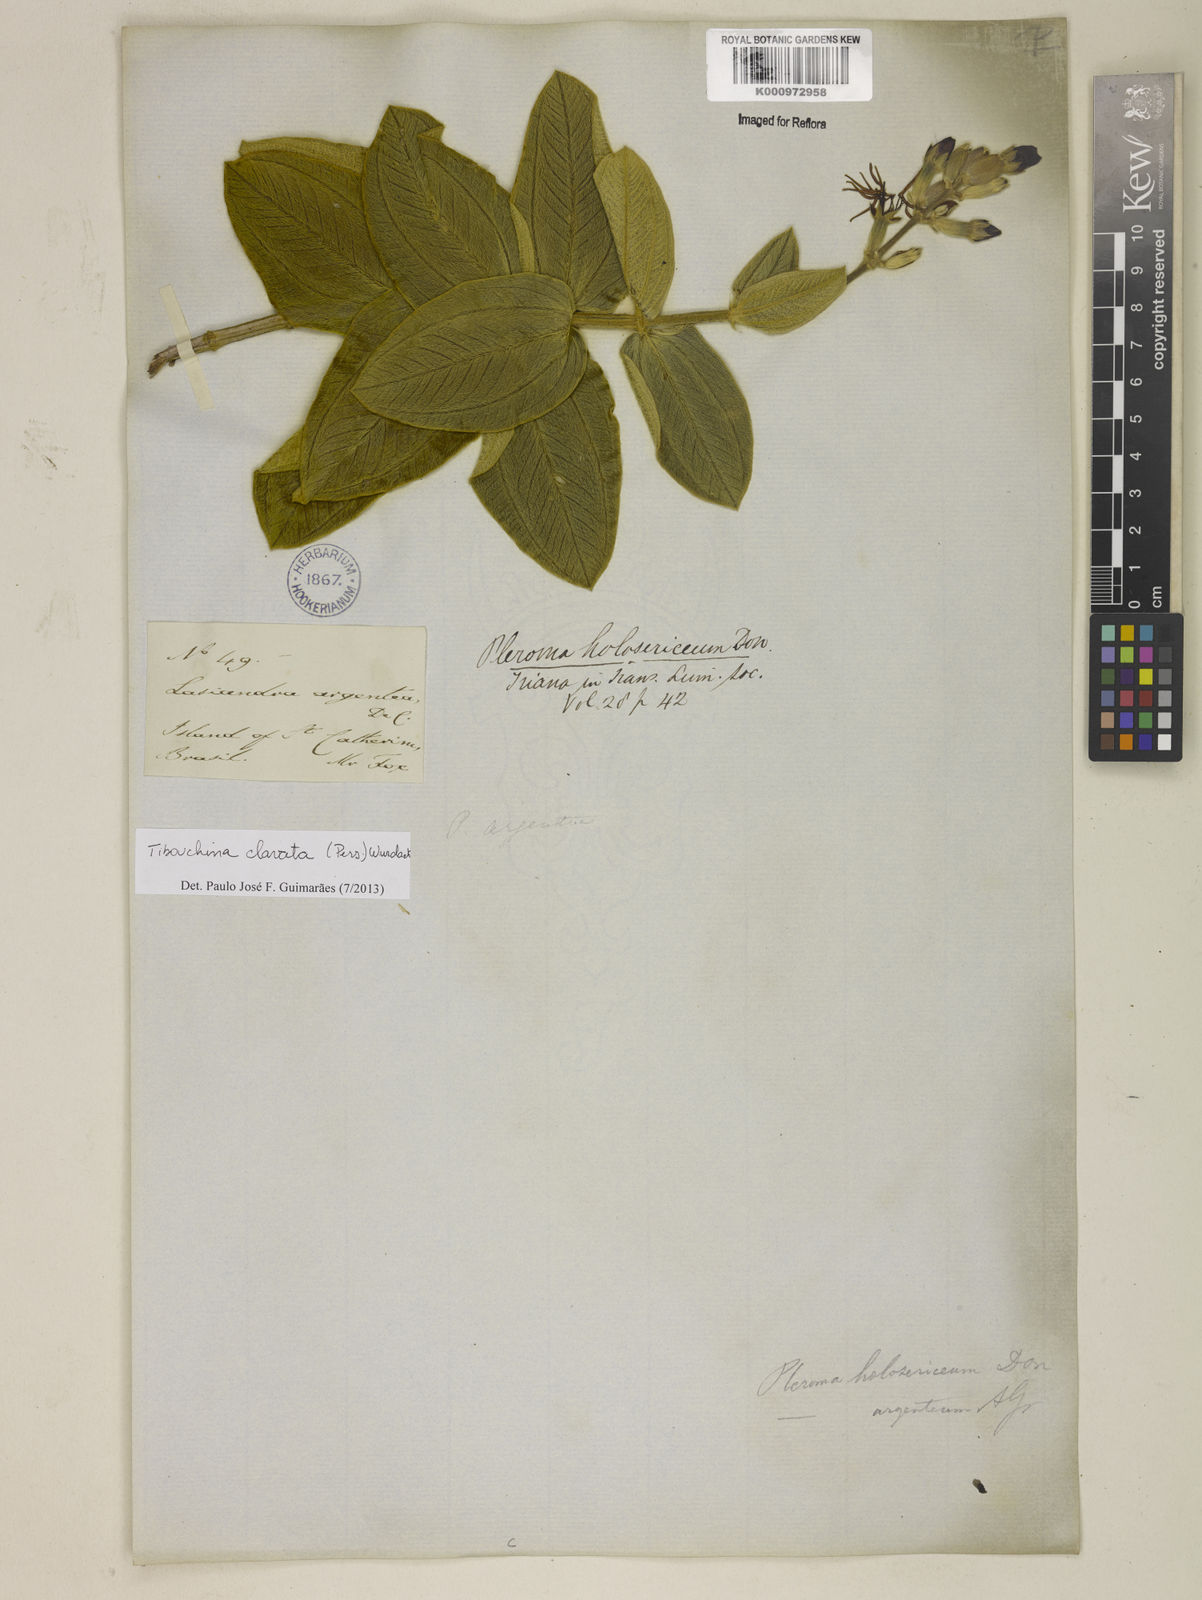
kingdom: Plantae
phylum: Tracheophyta
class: Magnoliopsida
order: Myrtales
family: Melastomataceae
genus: Pleroma
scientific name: Pleroma clavatum
